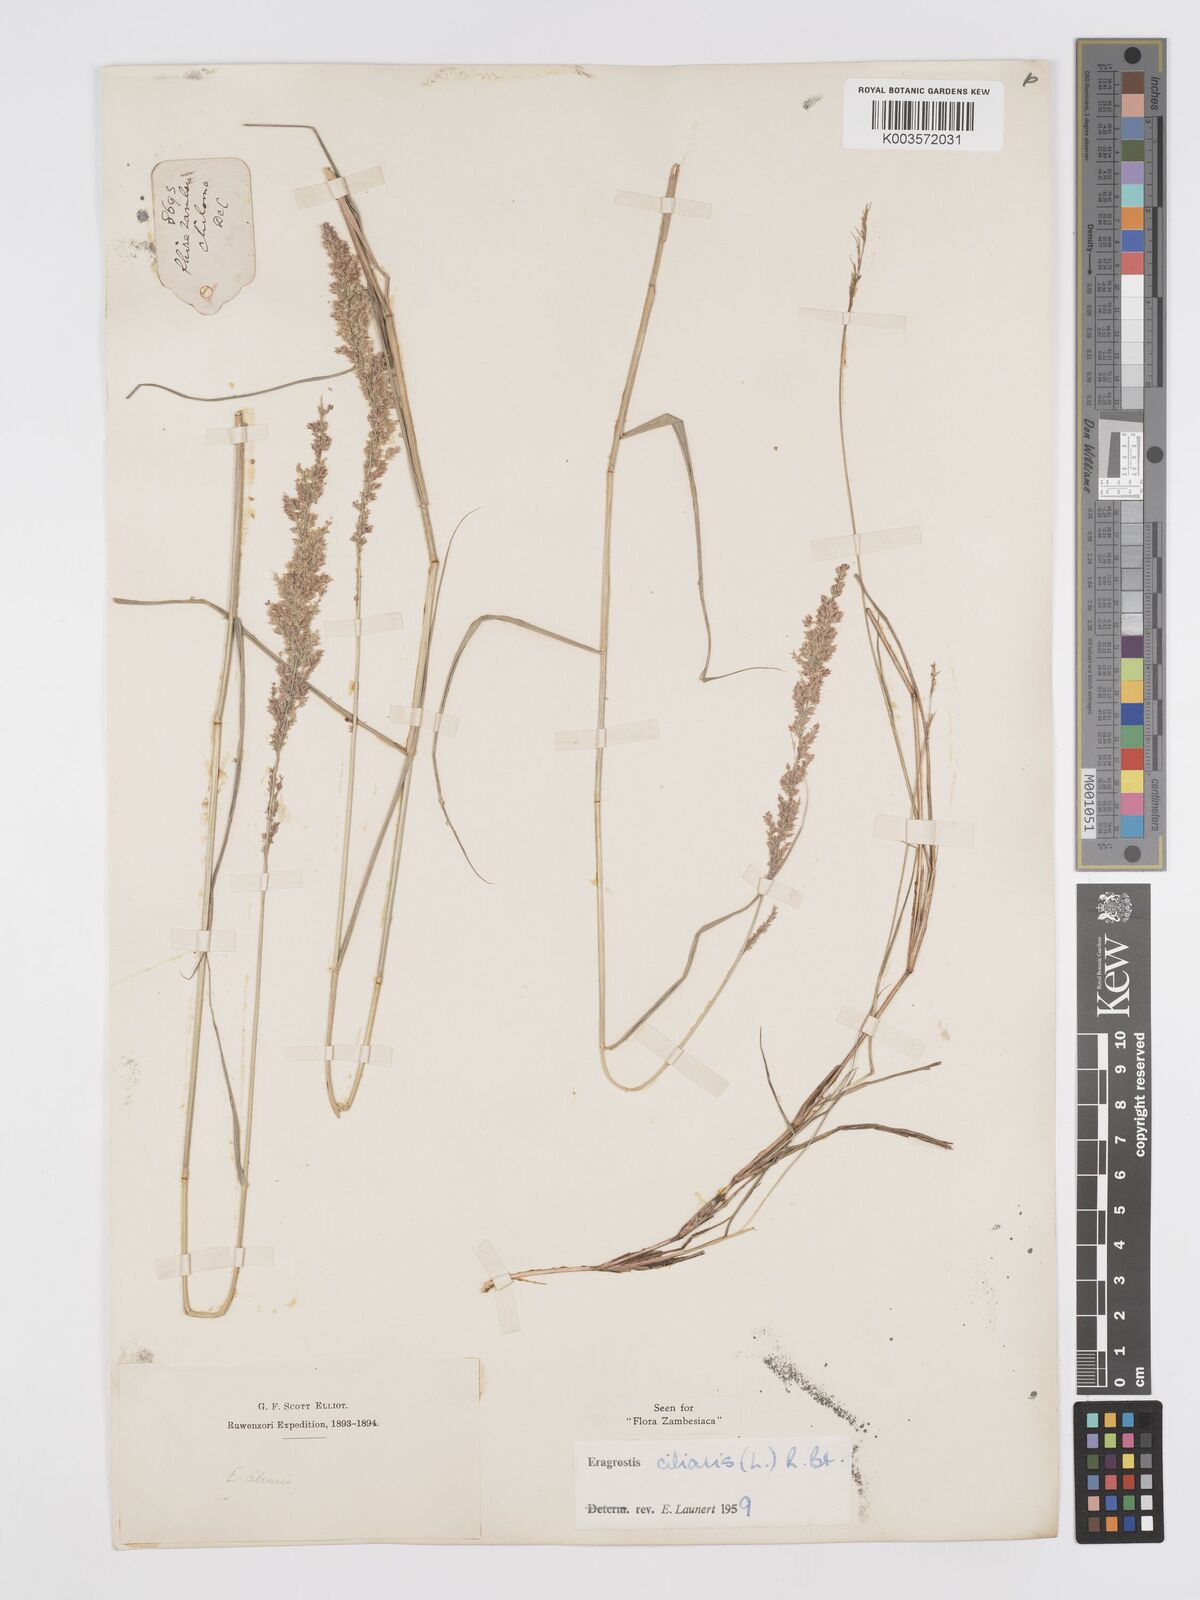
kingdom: Plantae
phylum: Tracheophyta
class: Liliopsida
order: Poales
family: Poaceae
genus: Eragrostis
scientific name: Eragrostis ciliaris
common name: Gophertail lovegrass
